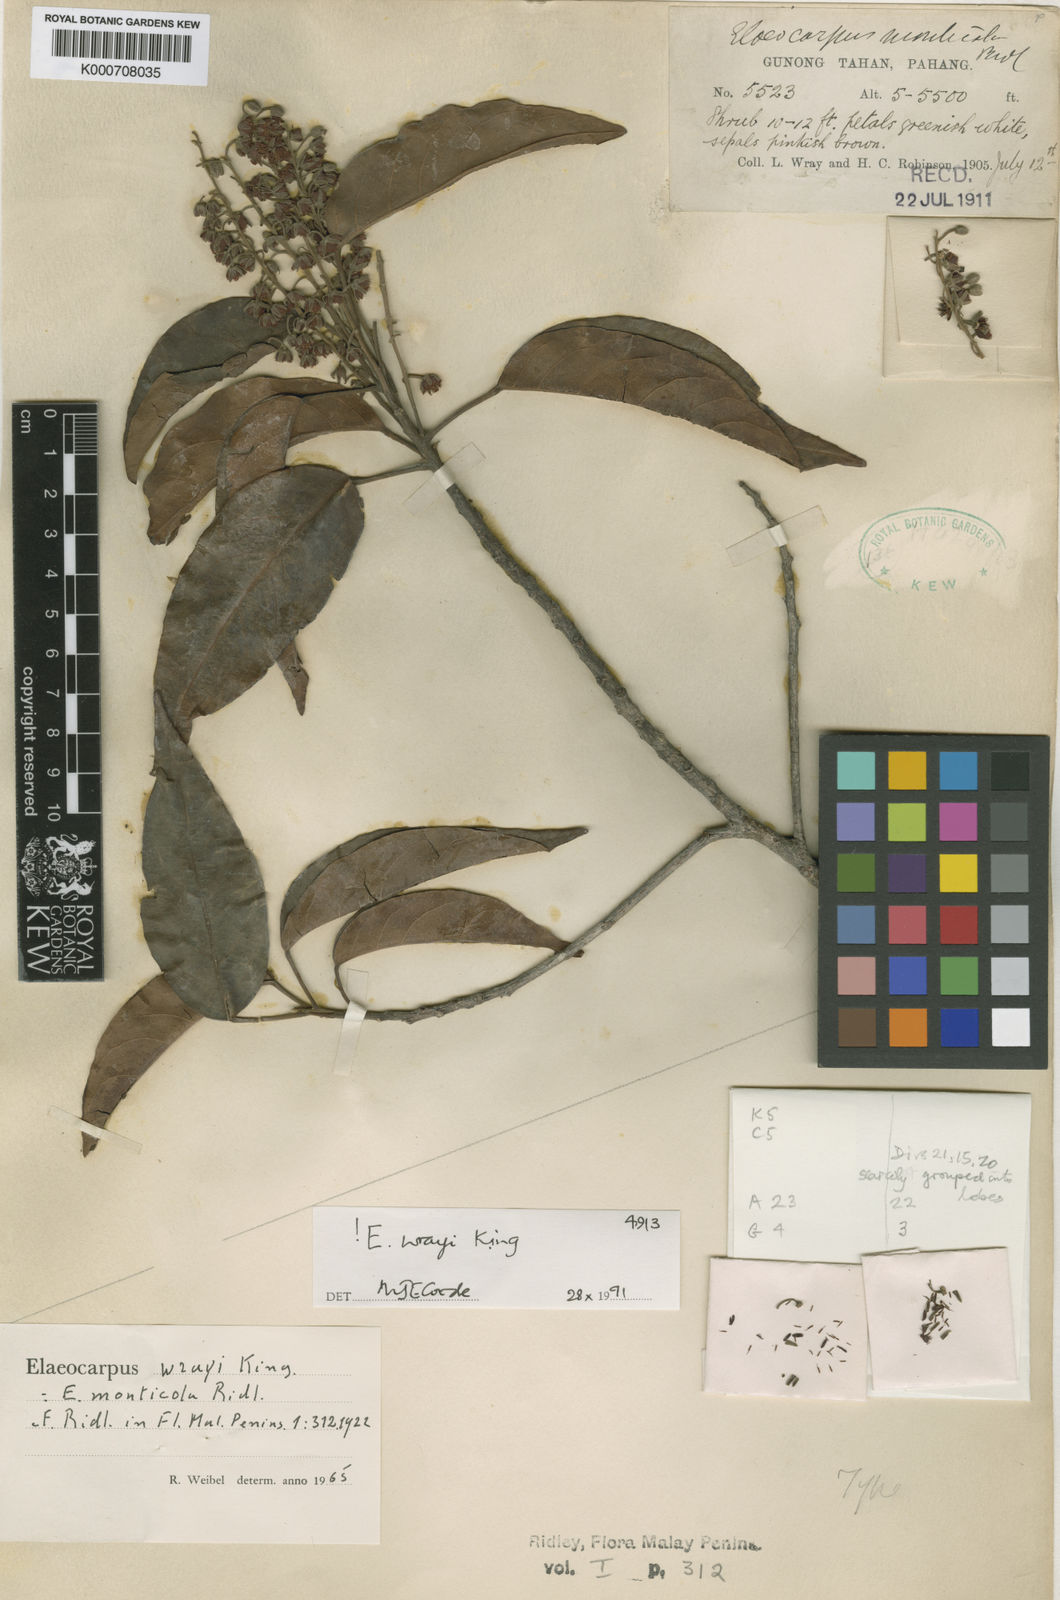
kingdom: Plantae
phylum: Tracheophyta
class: Magnoliopsida
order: Oxalidales
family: Elaeocarpaceae
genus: Elaeocarpus
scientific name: Elaeocarpus nitidus
